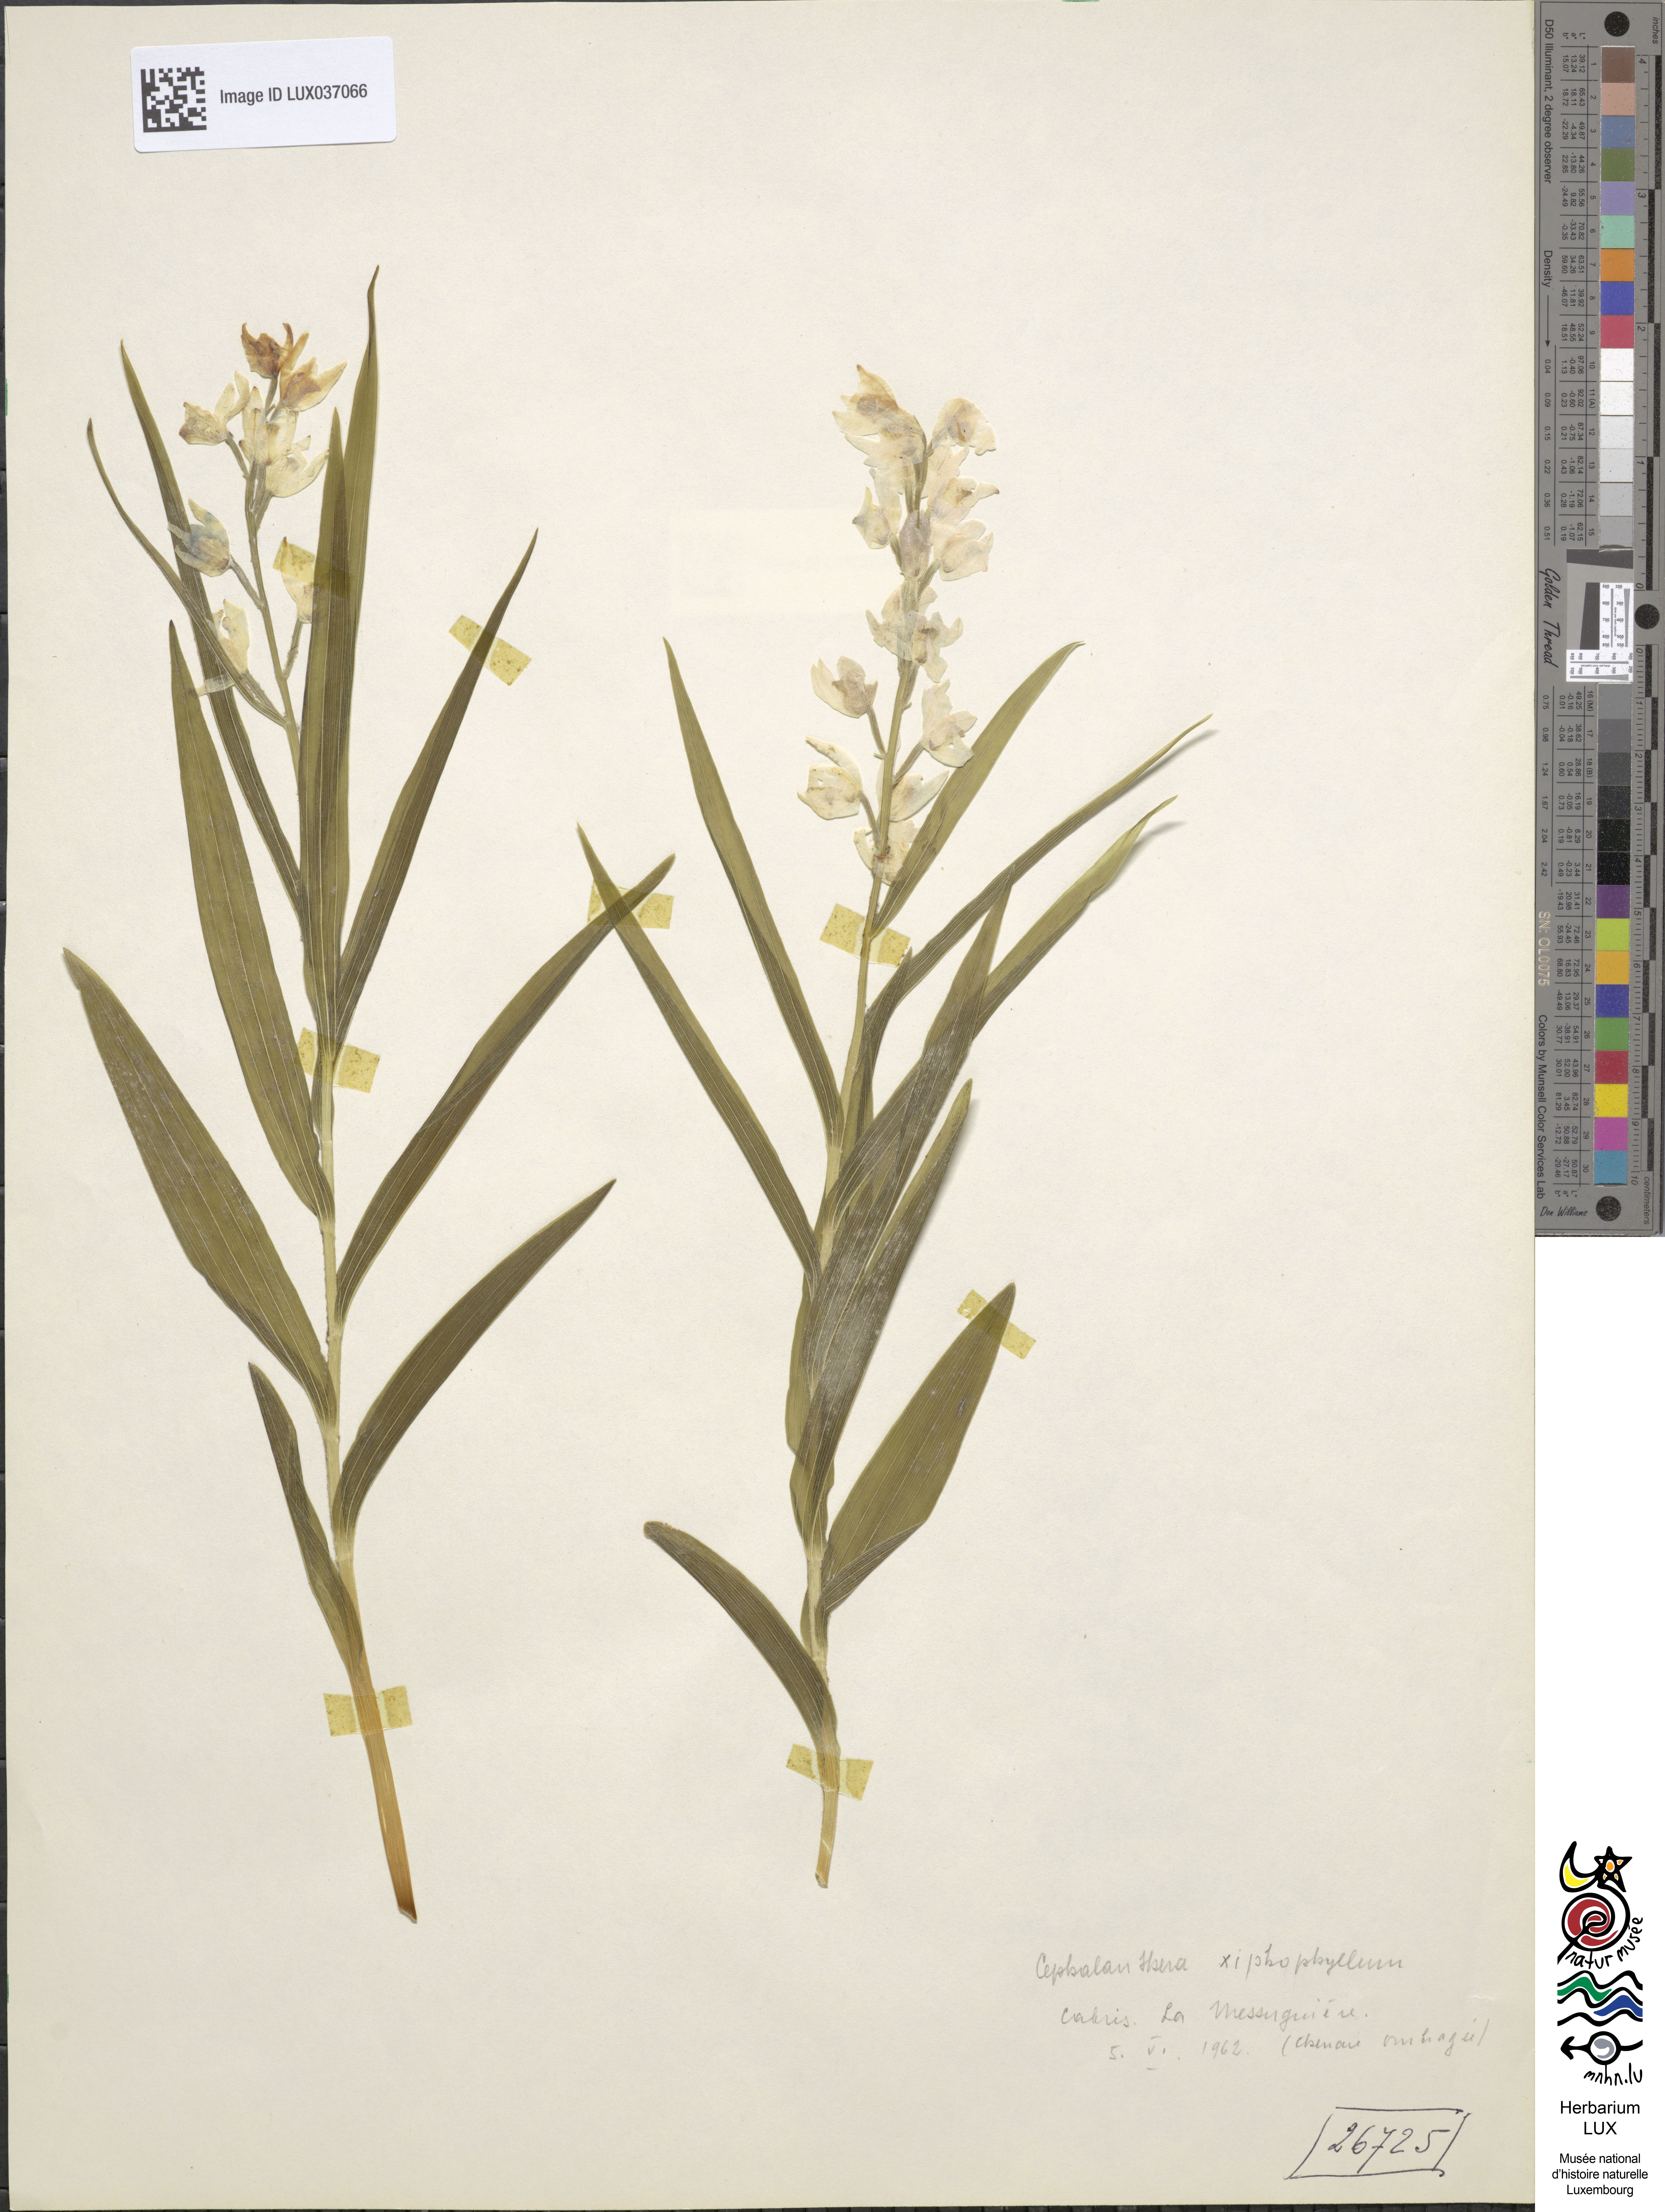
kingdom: Plantae
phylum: Tracheophyta
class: Liliopsida
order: Asparagales
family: Orchidaceae
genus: Cephalanthera
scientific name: Cephalanthera longifolia
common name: Narrow-leaved helleborine
